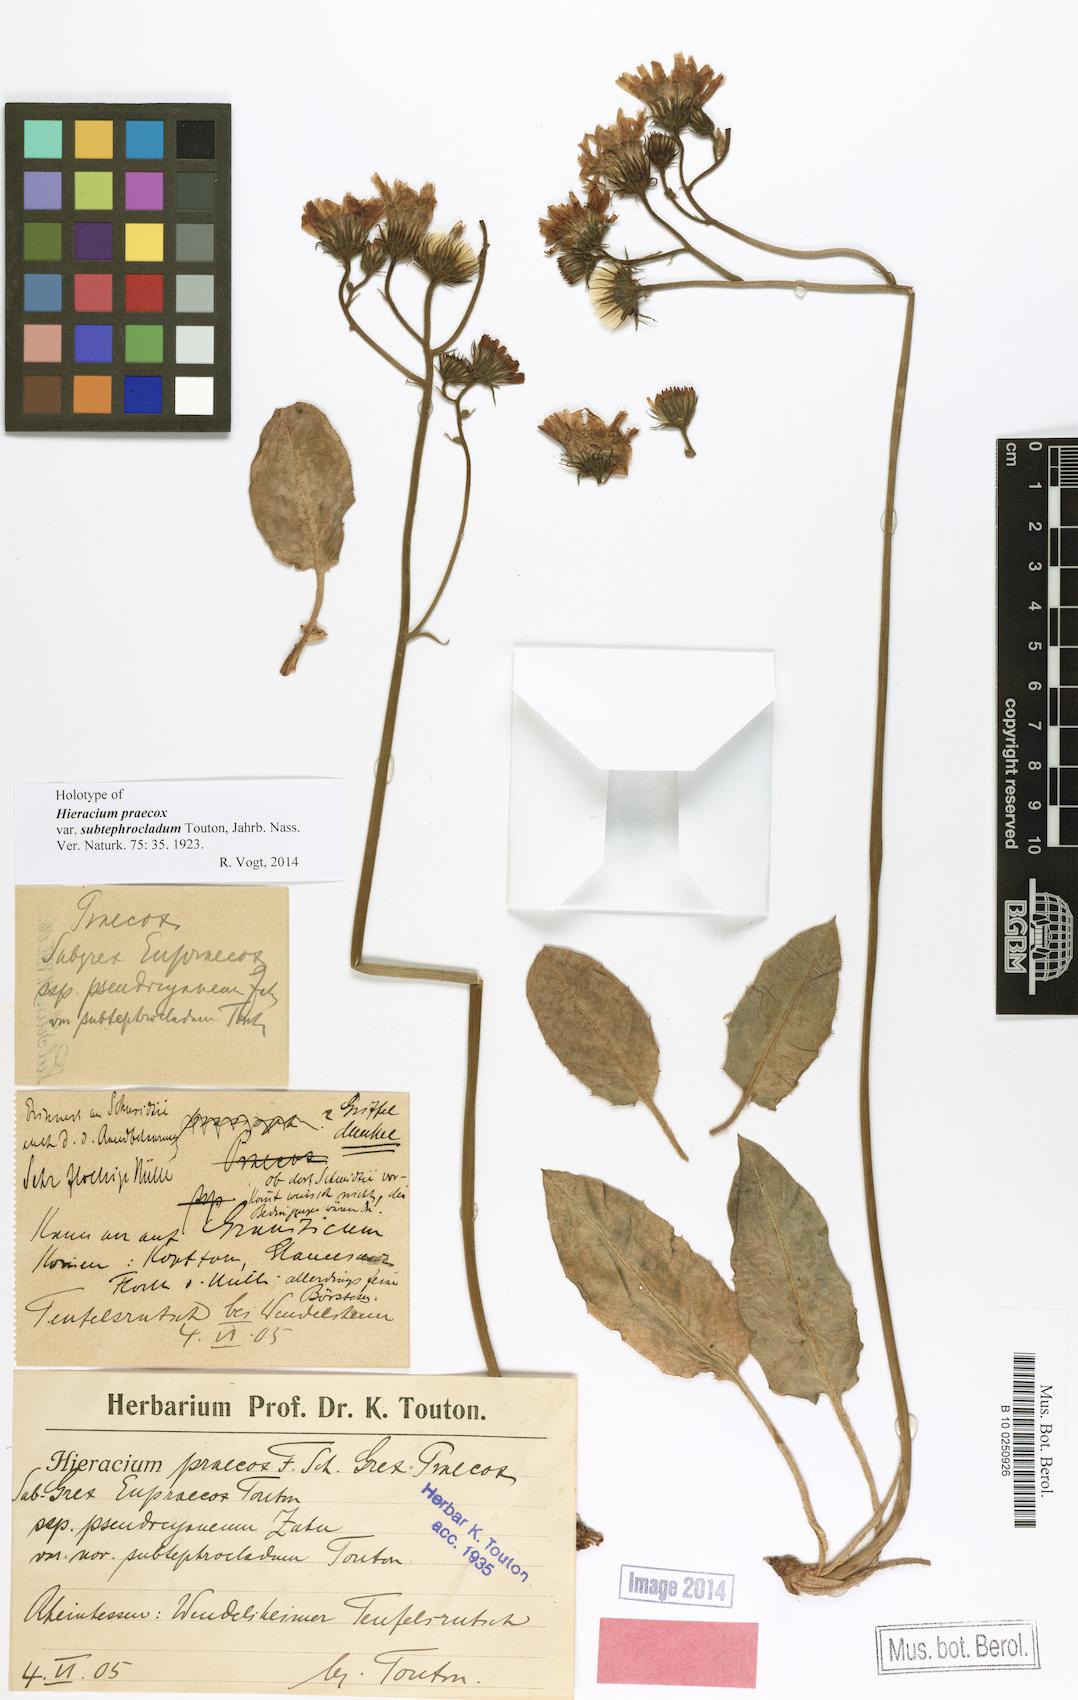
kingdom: Plantae
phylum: Tracheophyta
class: Magnoliopsida
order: Asterales
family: Asteraceae
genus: Hieracium
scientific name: Hieracium praecox
